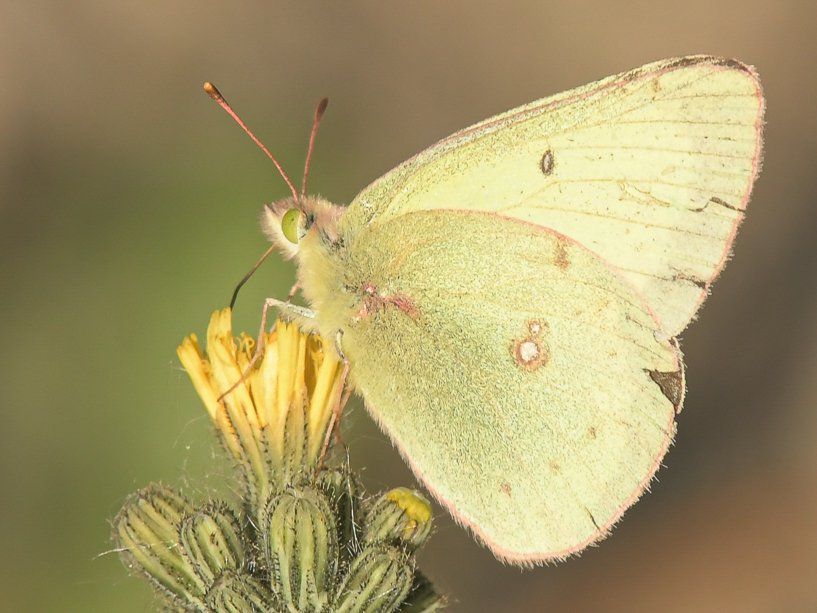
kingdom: Animalia
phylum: Arthropoda
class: Insecta
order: Lepidoptera
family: Pieridae
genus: Colias
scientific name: Colias philodice
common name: Clouded Sulphur
